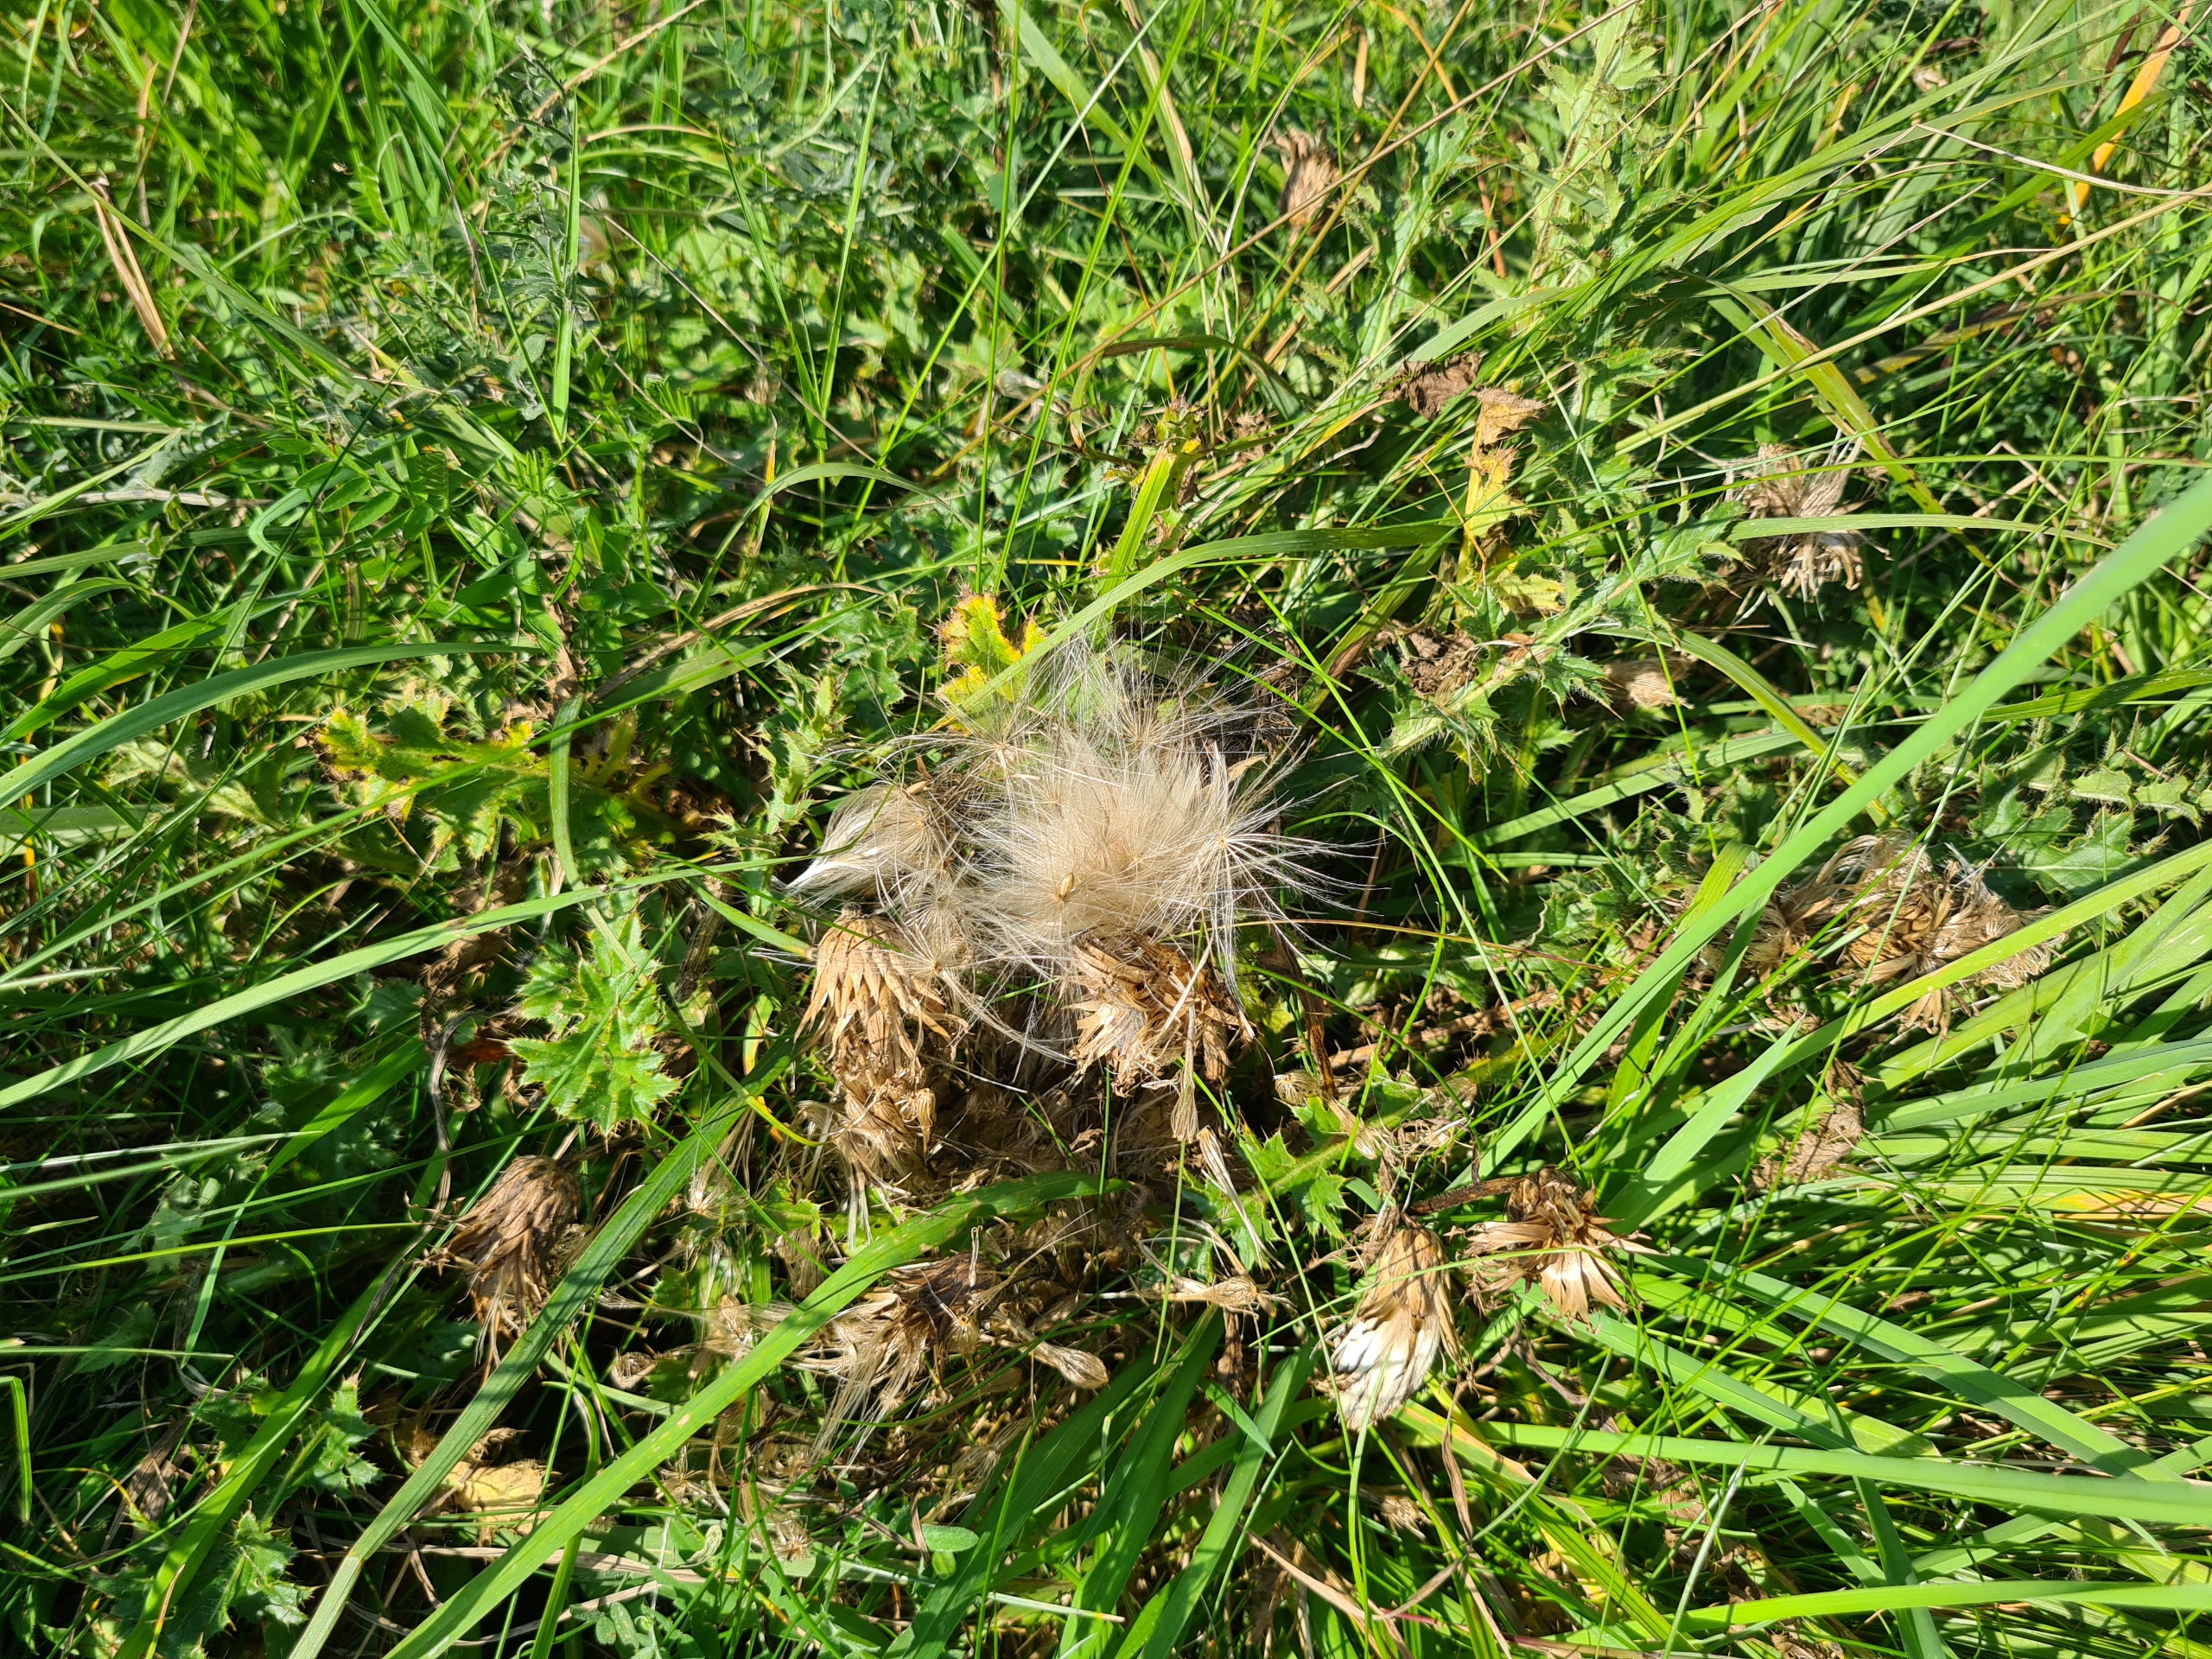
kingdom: Plantae
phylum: Tracheophyta
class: Magnoliopsida
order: Asterales
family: Asteraceae
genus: Cirsium
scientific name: Cirsium acaule
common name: Lav tidsel
